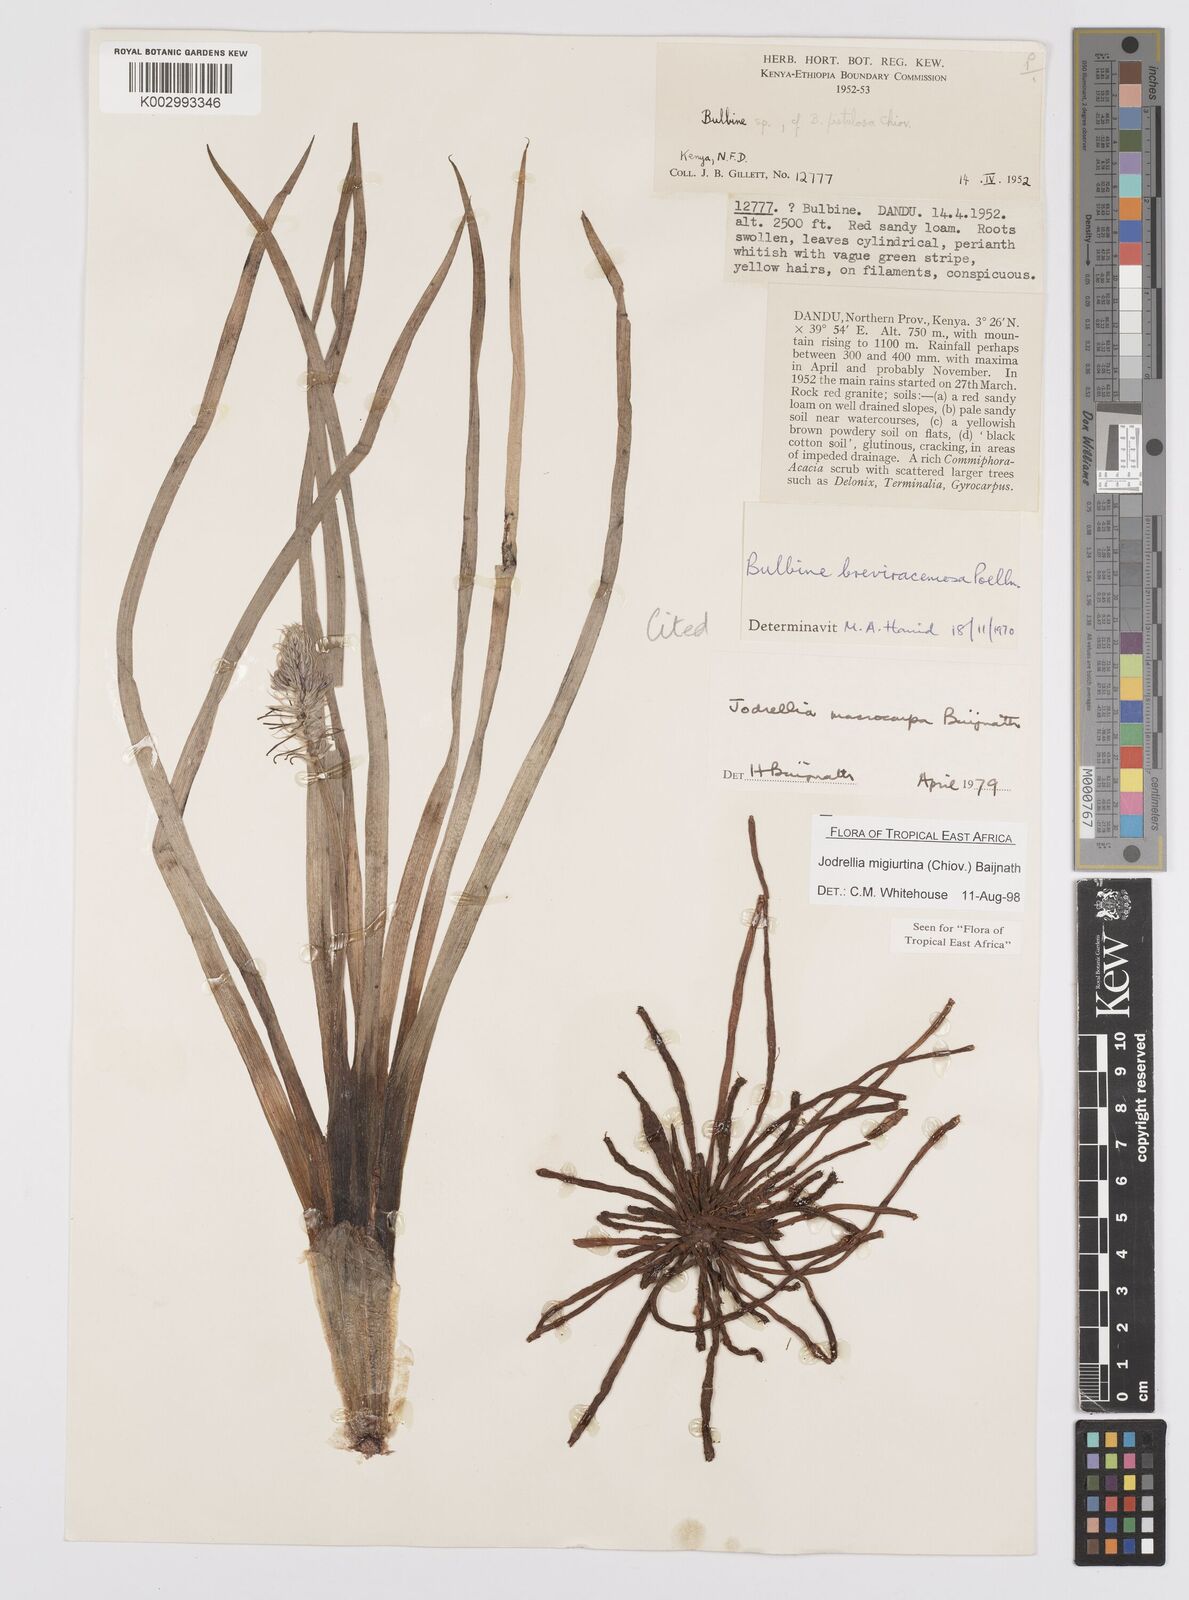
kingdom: Plantae
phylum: Tracheophyta
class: Liliopsida
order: Asparagales
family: Asphodelaceae
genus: Bulbine
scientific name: Bulbine migiurtina
